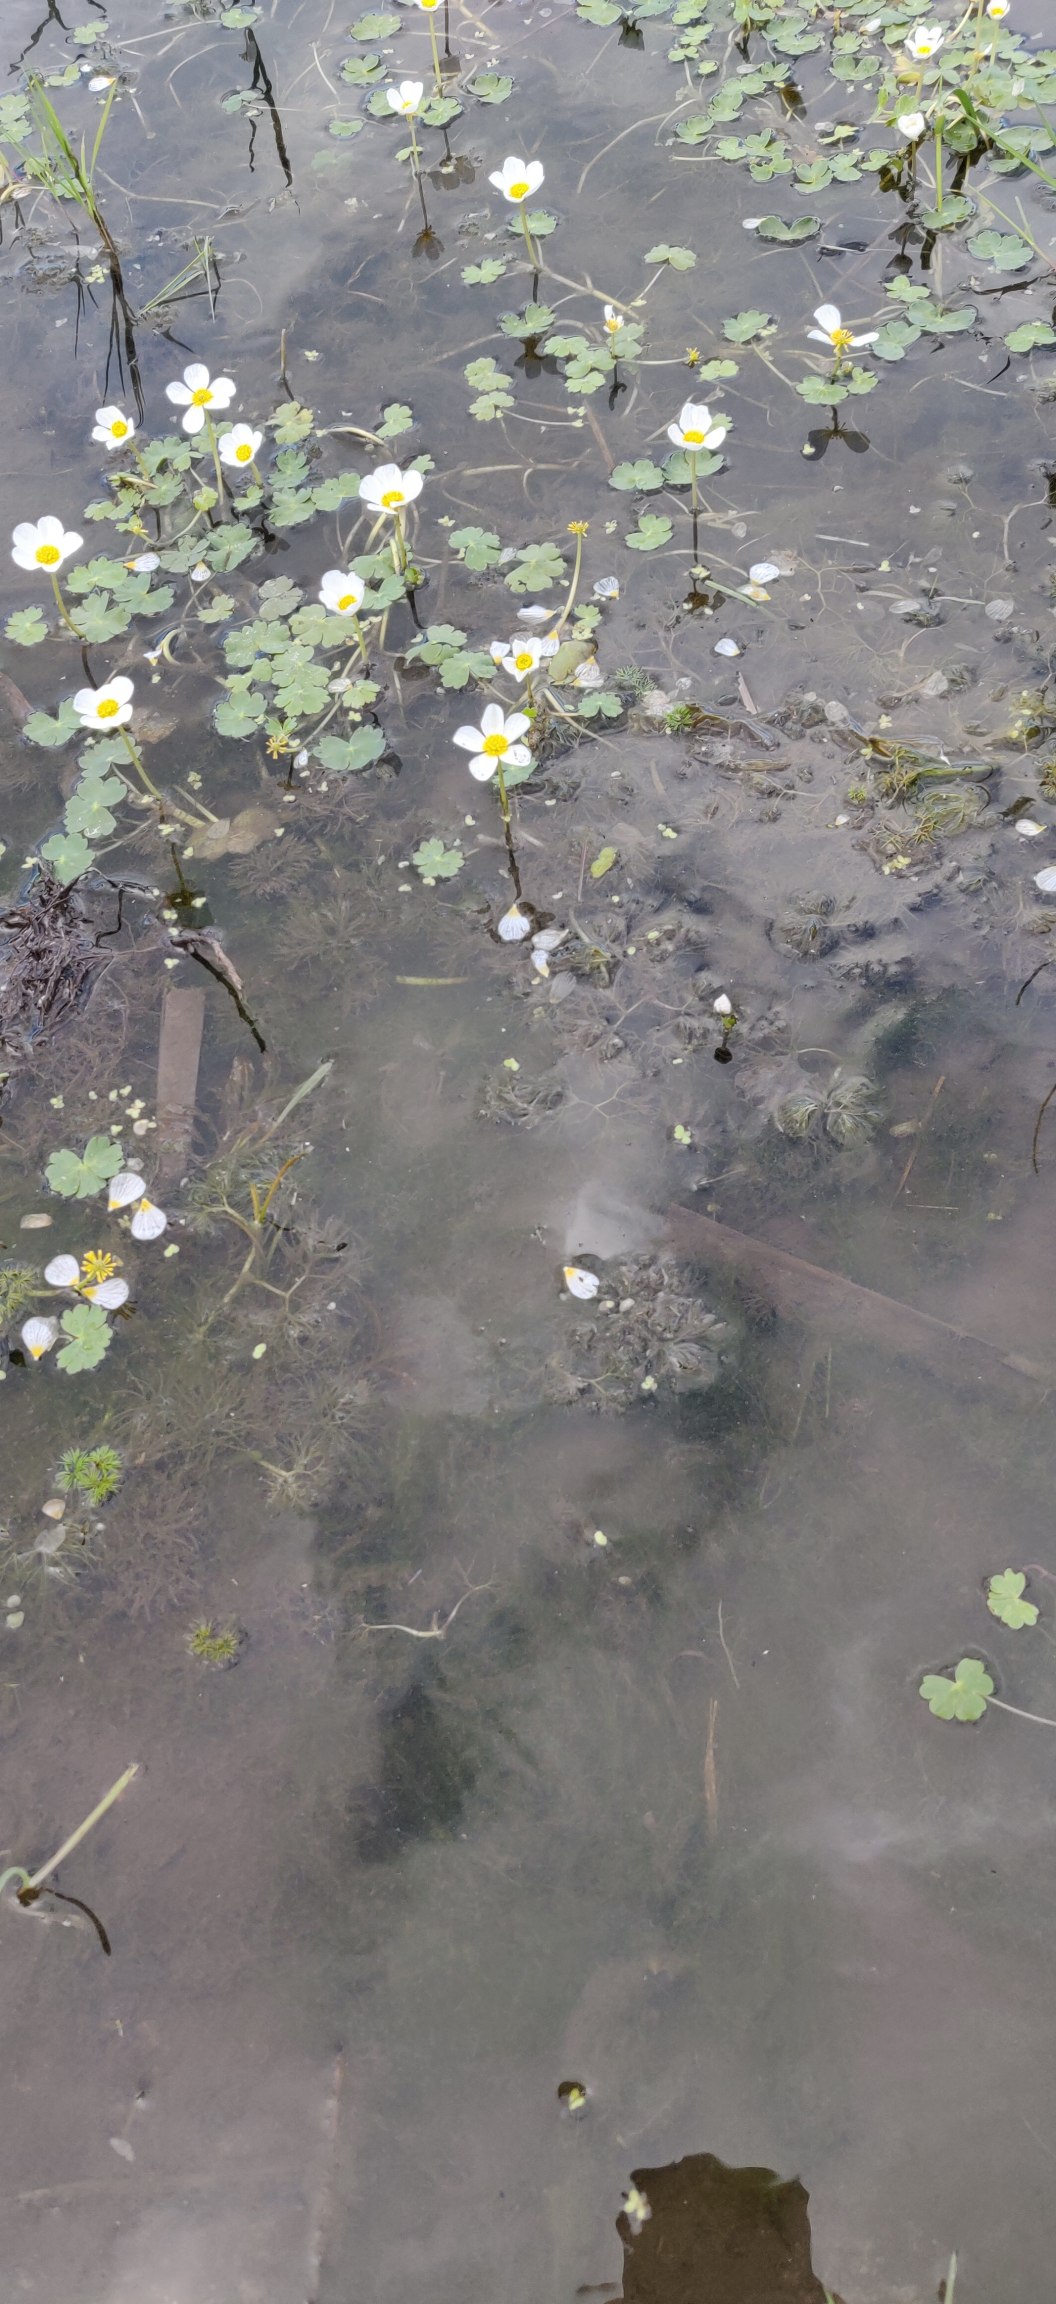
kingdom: Plantae
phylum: Tracheophyta
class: Magnoliopsida
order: Ranunculales
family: Ranunculaceae
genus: Ranunculus
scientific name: Ranunculus peltatus
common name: Storblomstret vandranunkel
